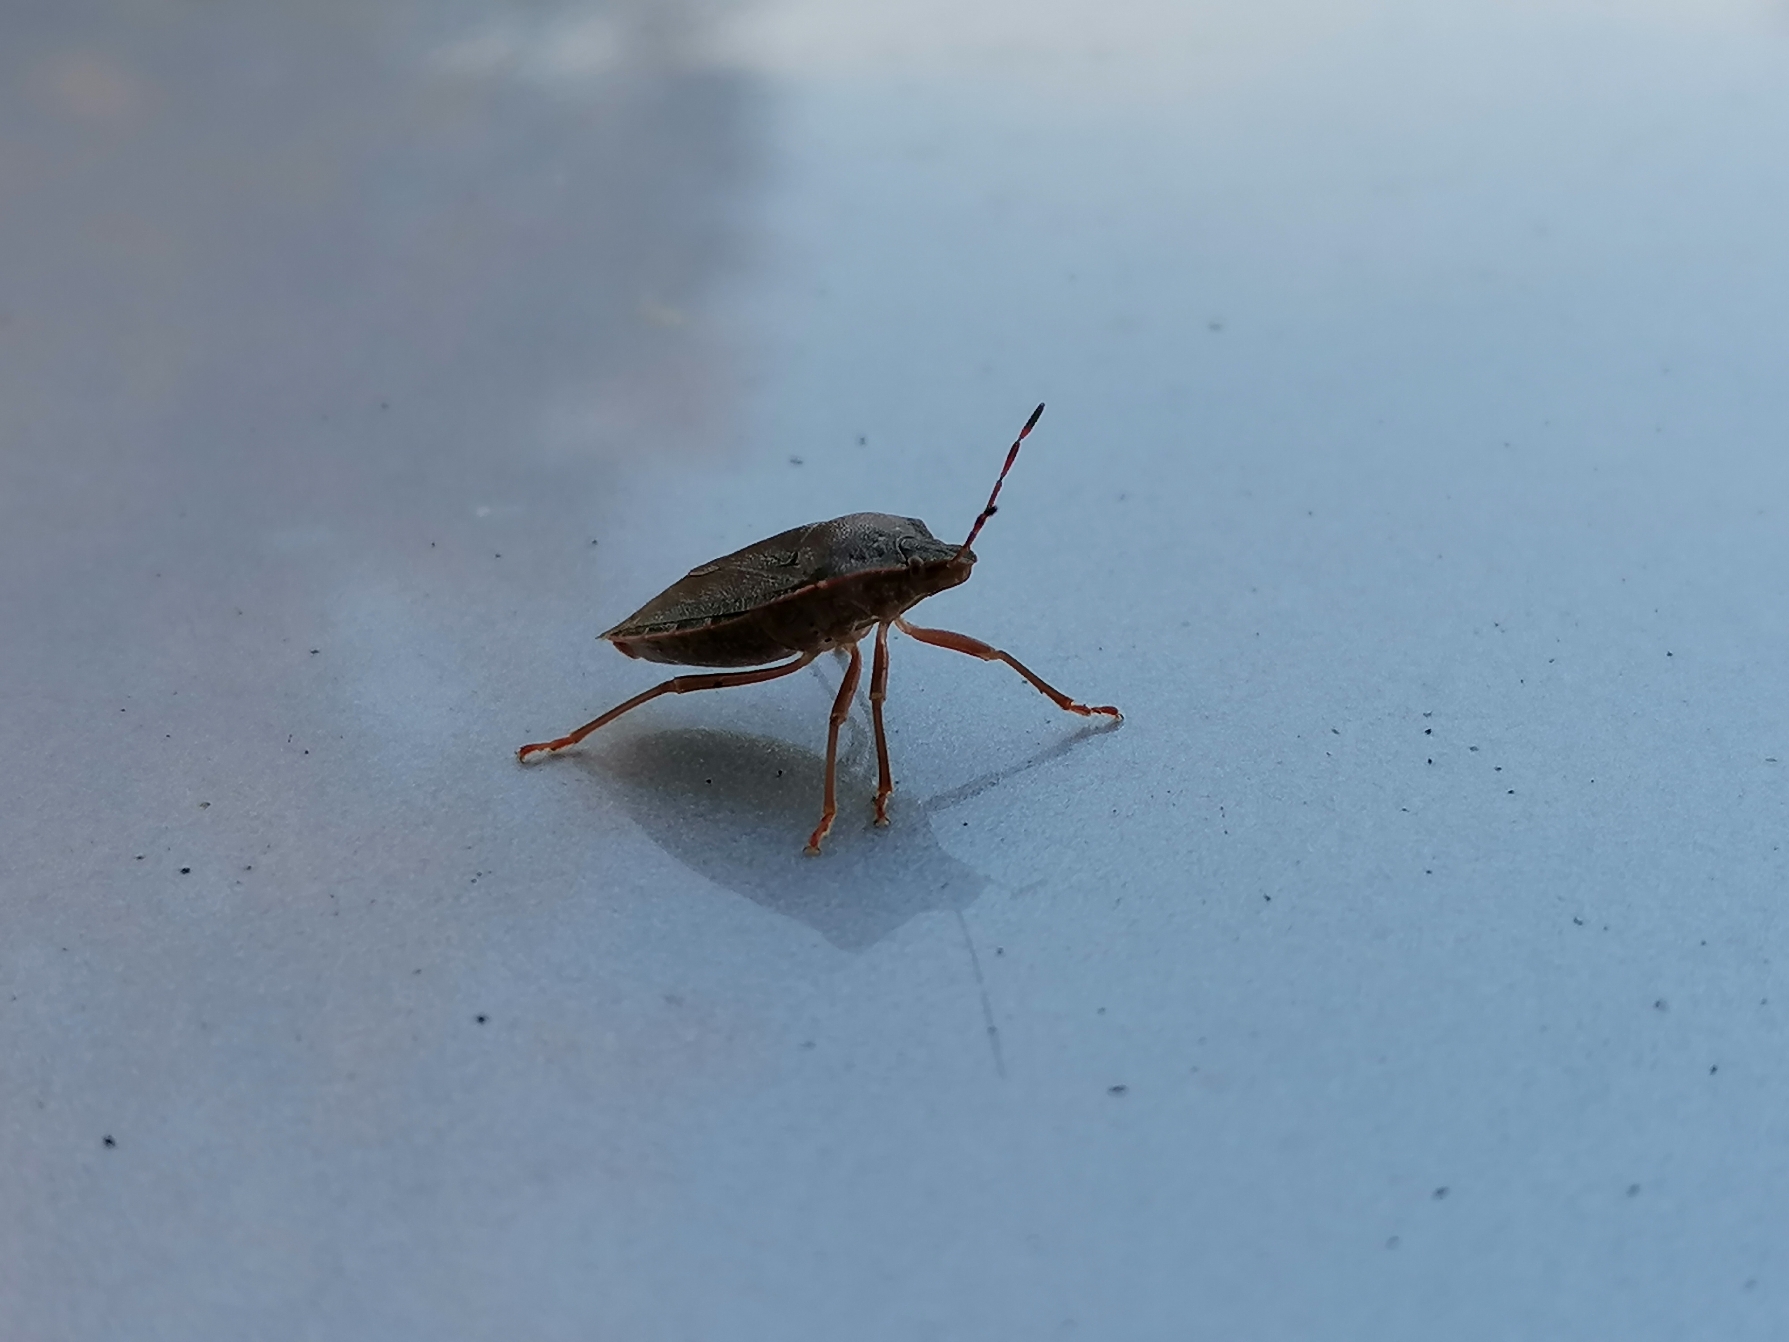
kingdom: Animalia
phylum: Arthropoda
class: Insecta
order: Hemiptera
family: Pentatomidae
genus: Palomena
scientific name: Palomena prasina
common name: Grøn bredtæge
